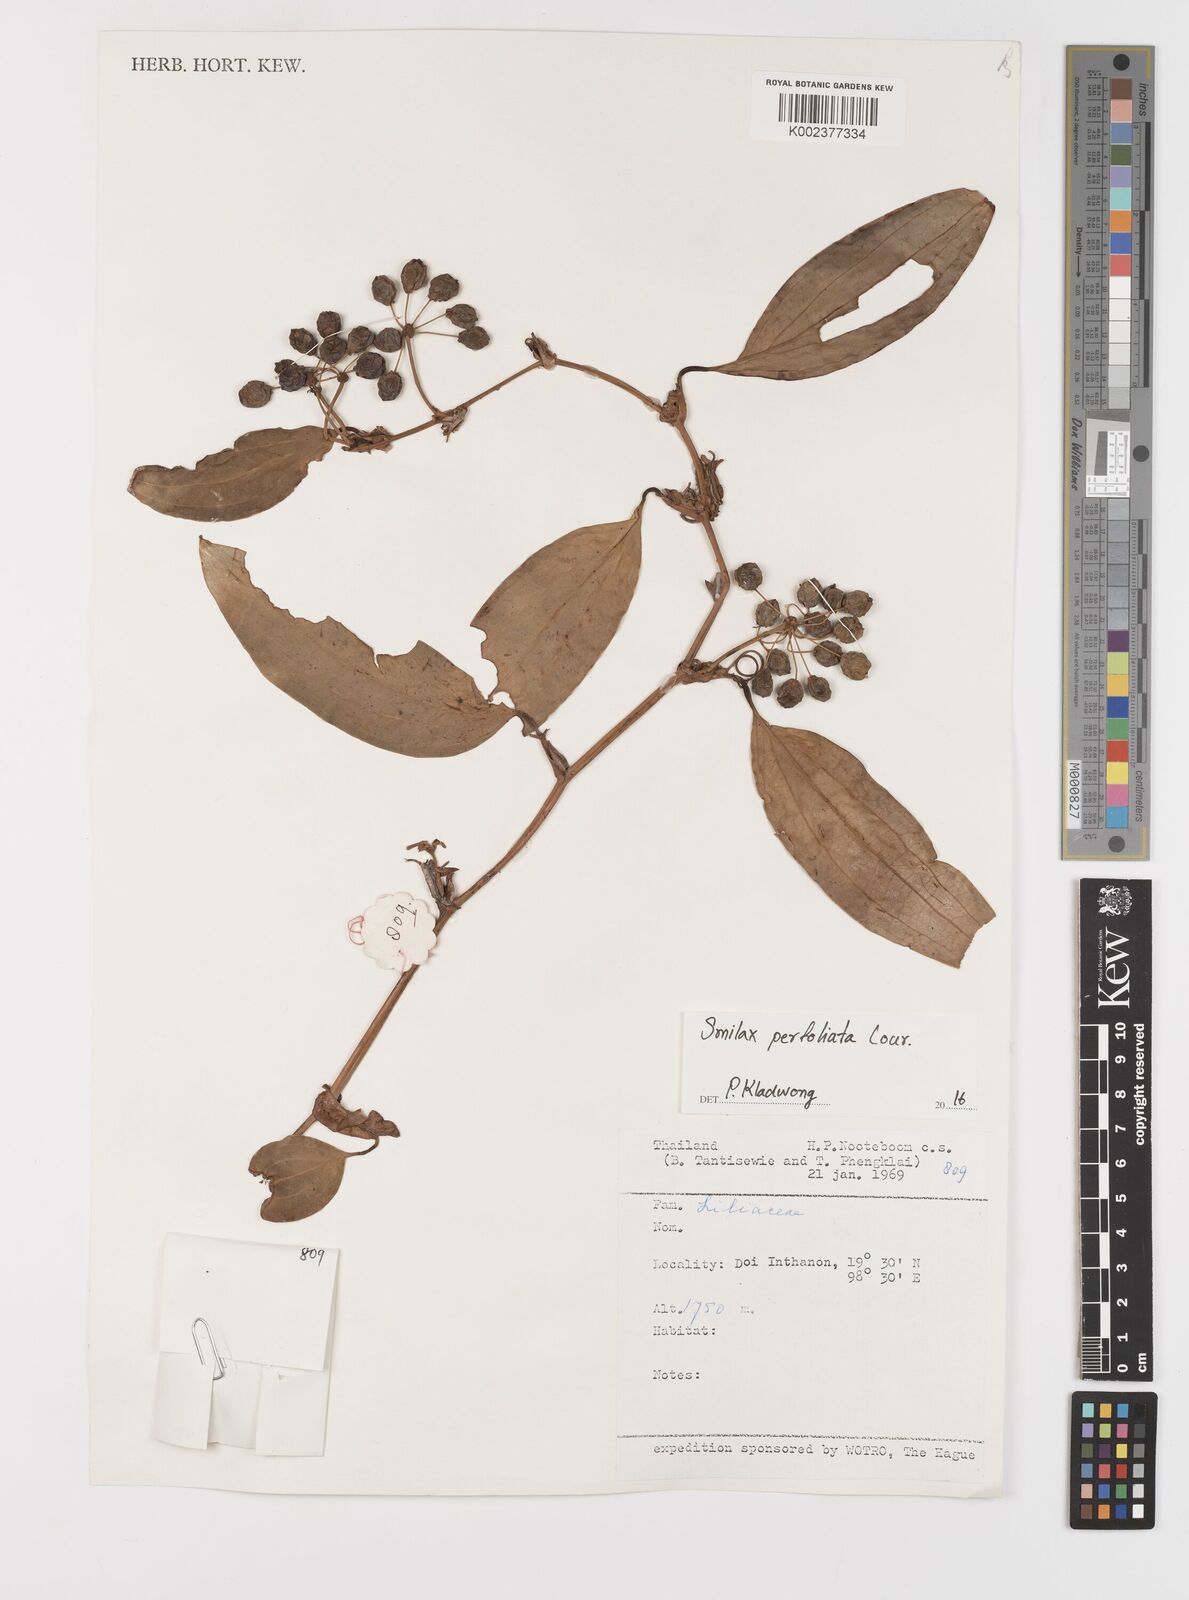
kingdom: Plantae
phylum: Tracheophyta
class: Liliopsida
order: Liliales
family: Smilacaceae
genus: Smilax
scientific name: Smilax perfoliata
